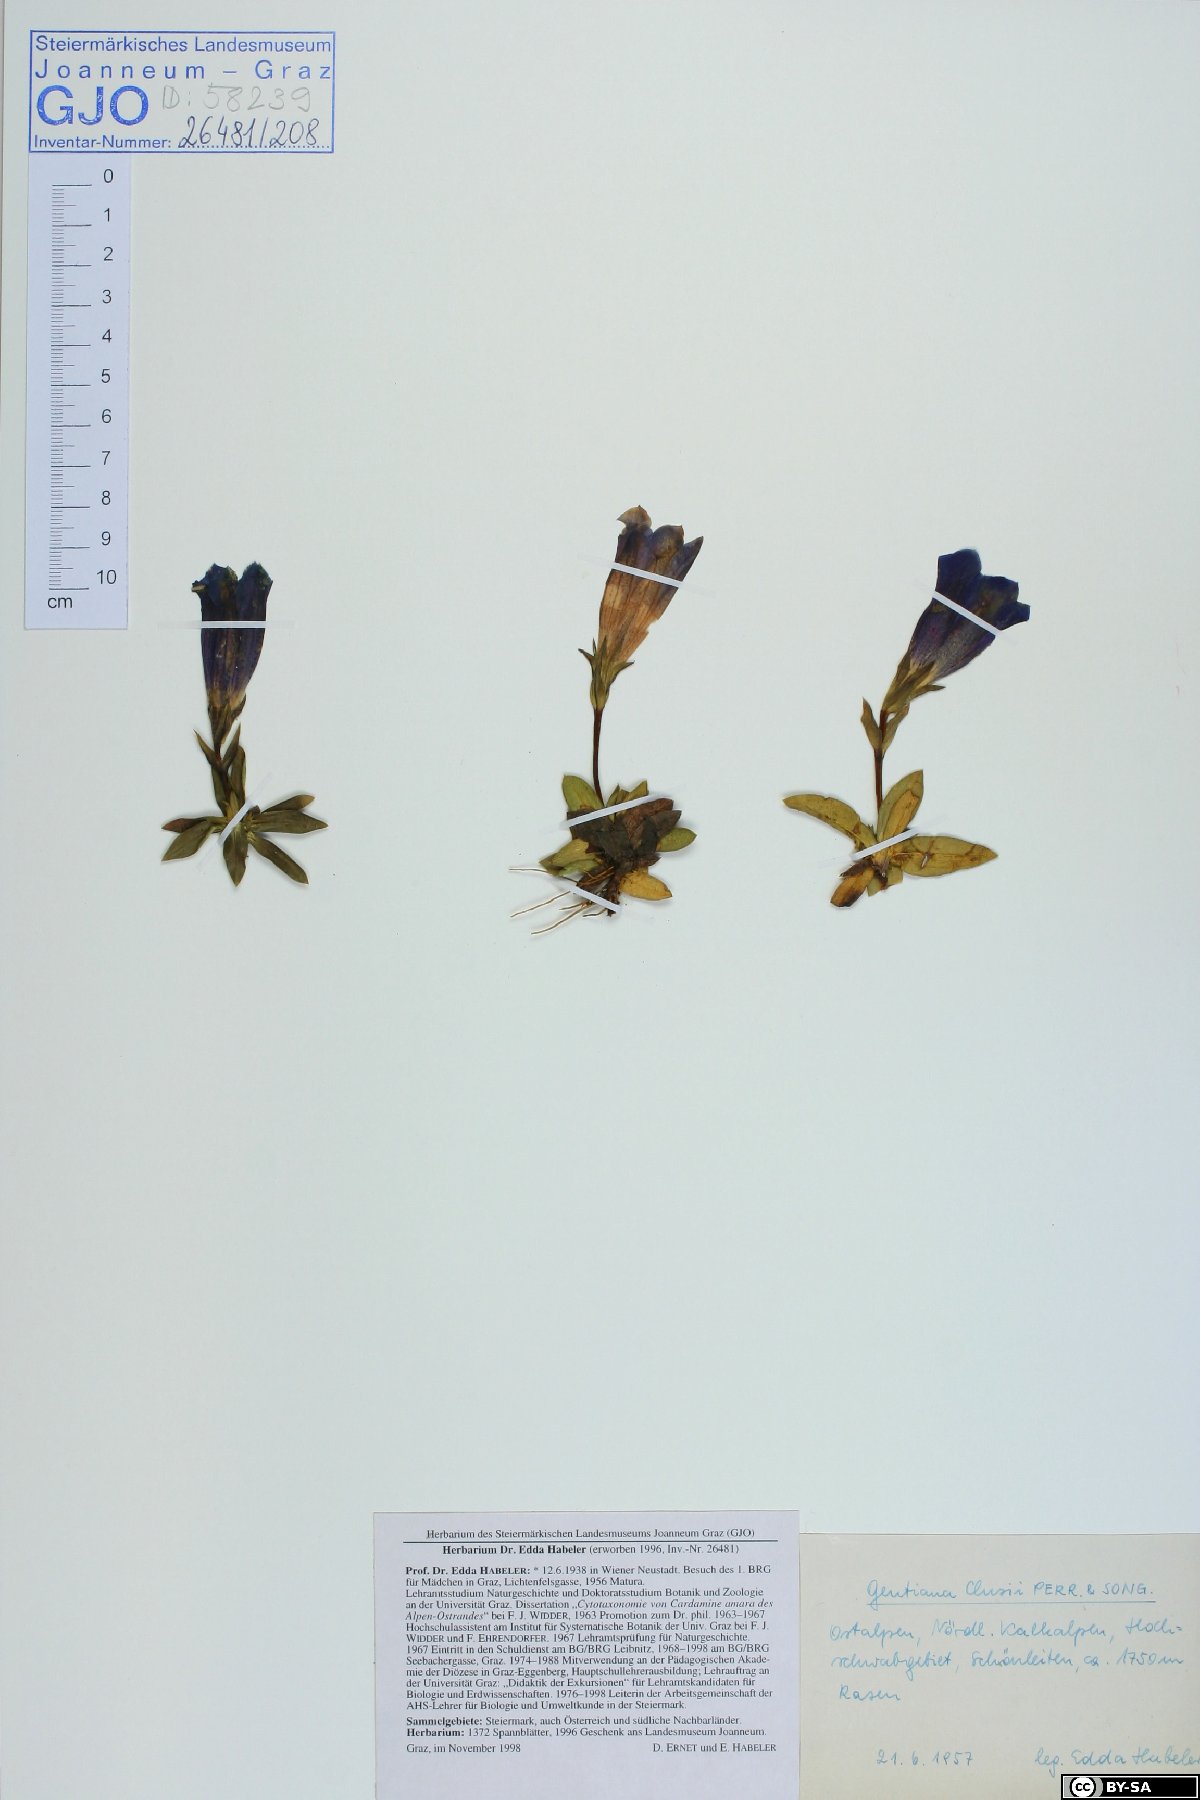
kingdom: Plantae
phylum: Tracheophyta
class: Magnoliopsida
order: Gentianales
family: Gentianaceae
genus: Gentiana
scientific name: Gentiana clusii
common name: Trumpet gentian
